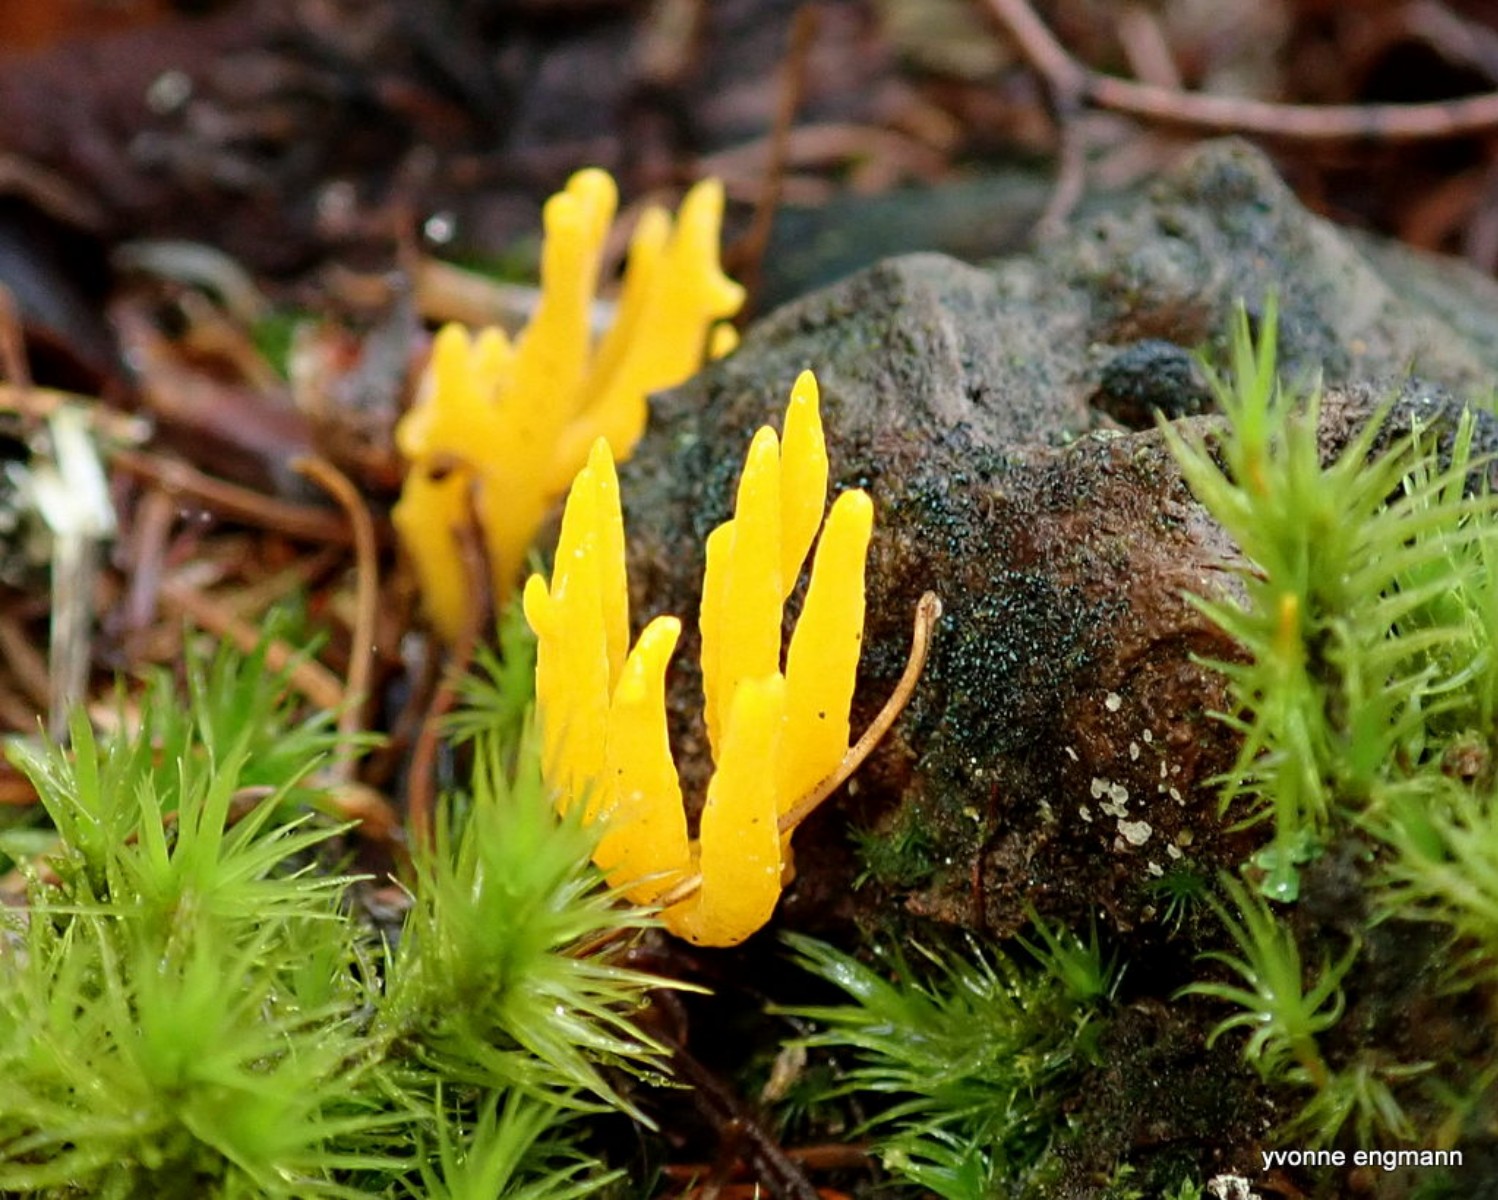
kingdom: Fungi
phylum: Basidiomycota
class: Dacrymycetes
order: Dacrymycetales
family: Dacrymycetaceae
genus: Calocera
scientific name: Calocera viscosa
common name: almindelig guldgaffel
